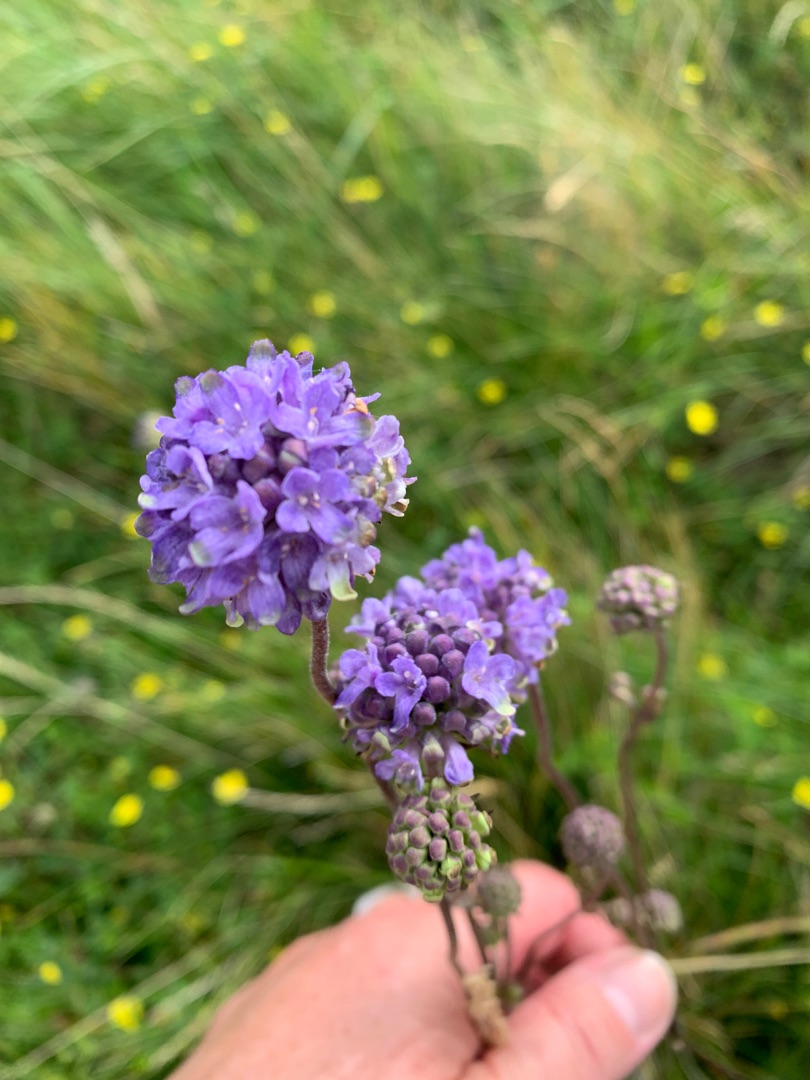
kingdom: Plantae
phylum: Tracheophyta
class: Magnoliopsida
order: Dipsacales
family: Caprifoliaceae
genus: Succisa
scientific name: Succisa pratensis
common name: Djævelsbid
